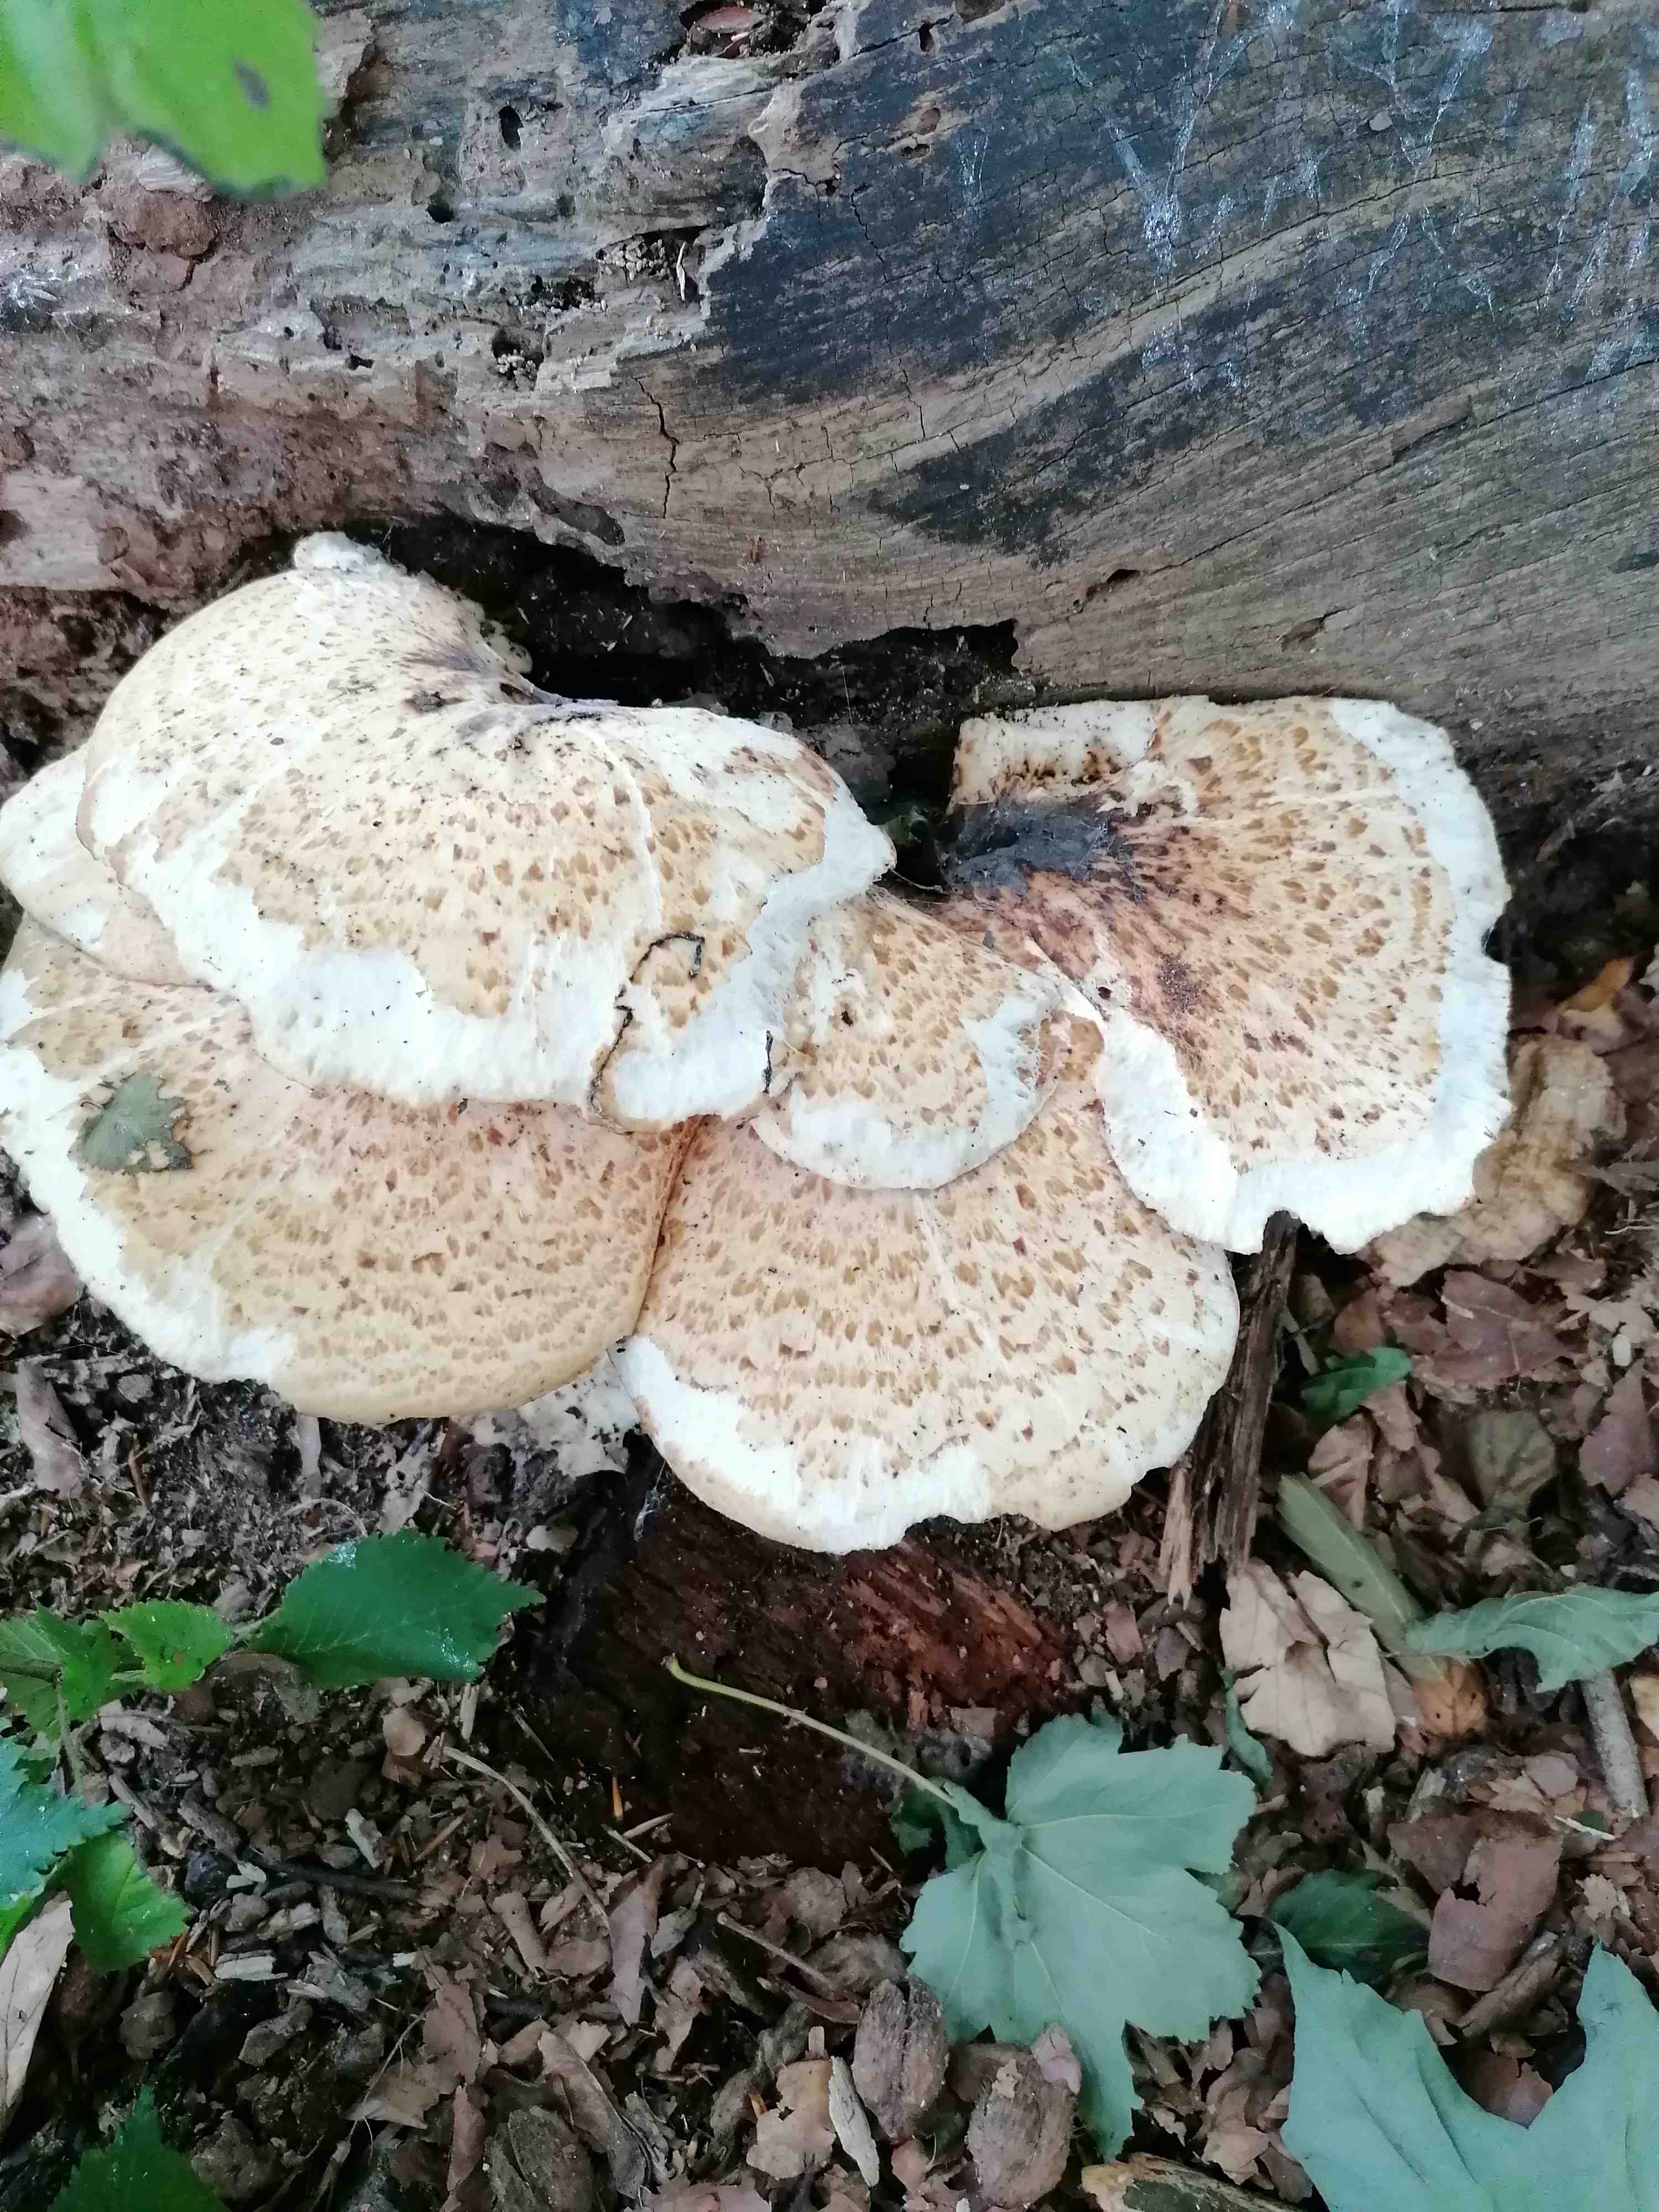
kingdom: Fungi
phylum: Basidiomycota
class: Agaricomycetes
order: Polyporales
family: Polyporaceae
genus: Cerioporus
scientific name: Cerioporus squamosus
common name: skællet stilkporesvamp
